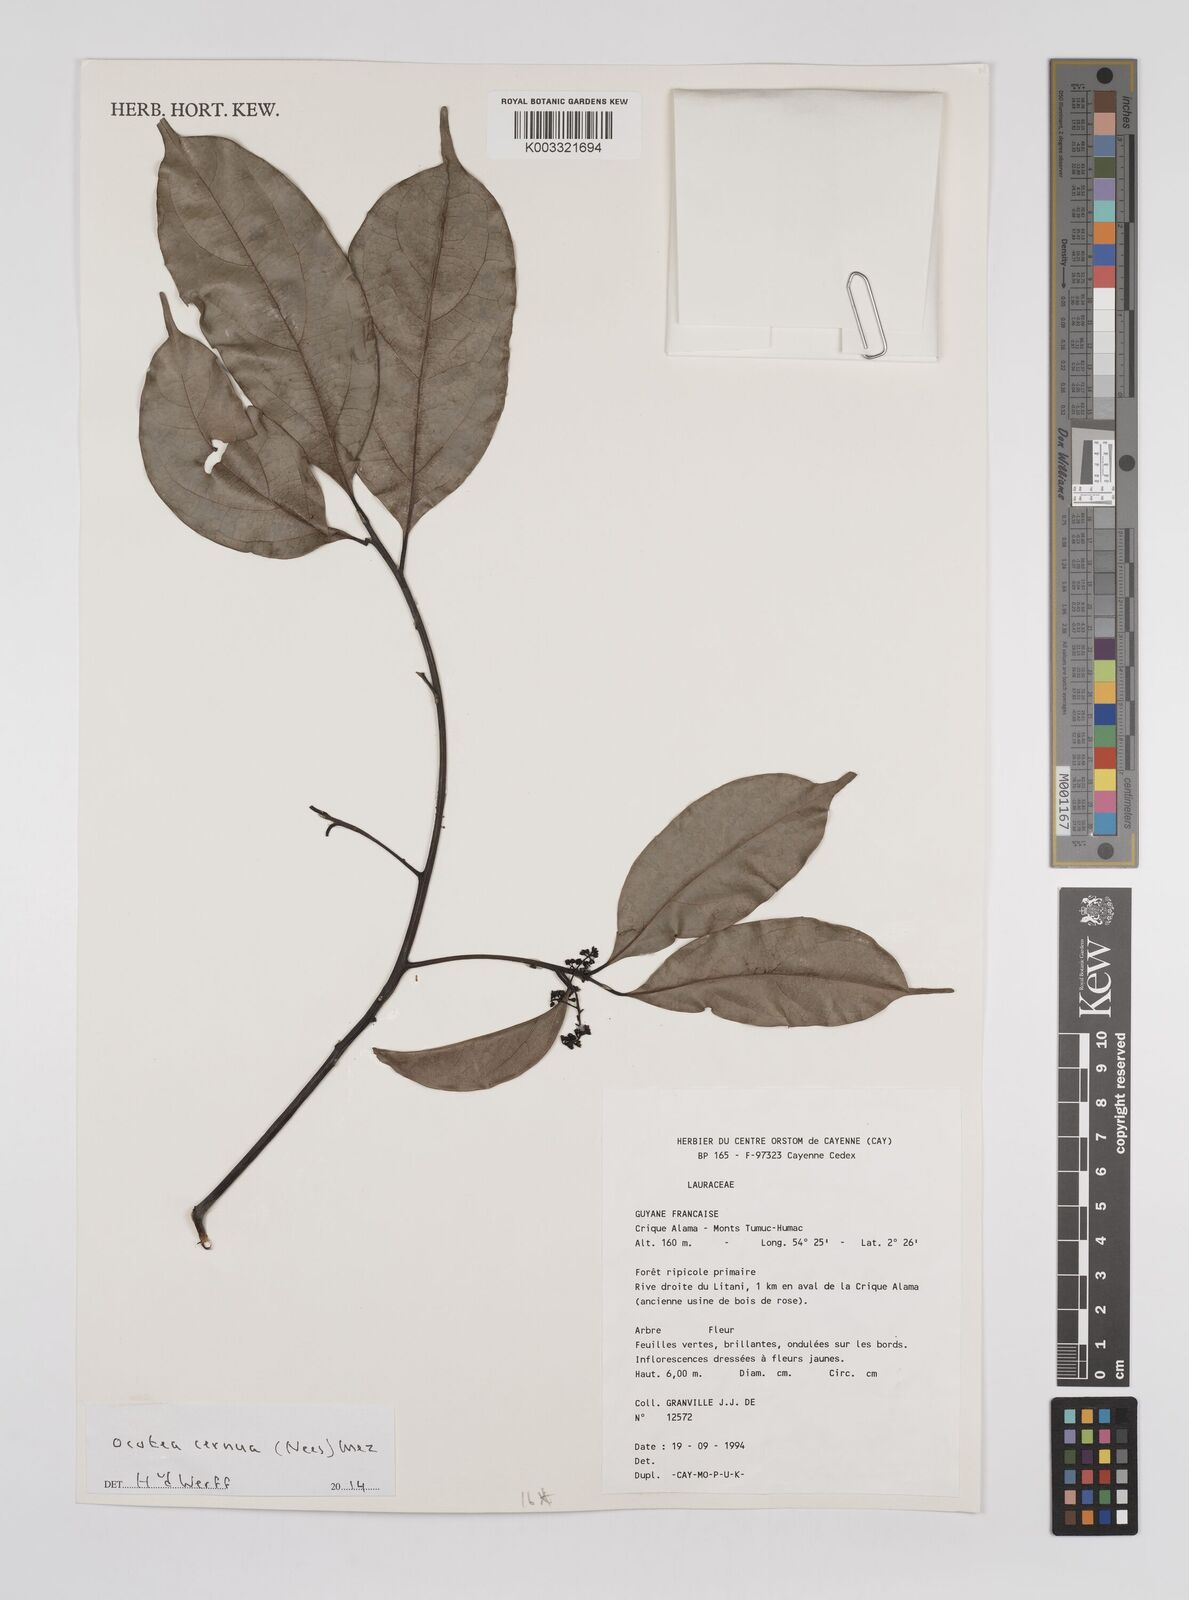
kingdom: Plantae
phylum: Tracheophyta
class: Magnoliopsida
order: Laurales
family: Lauraceae
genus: Ocotea
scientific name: Ocotea leptobotra
